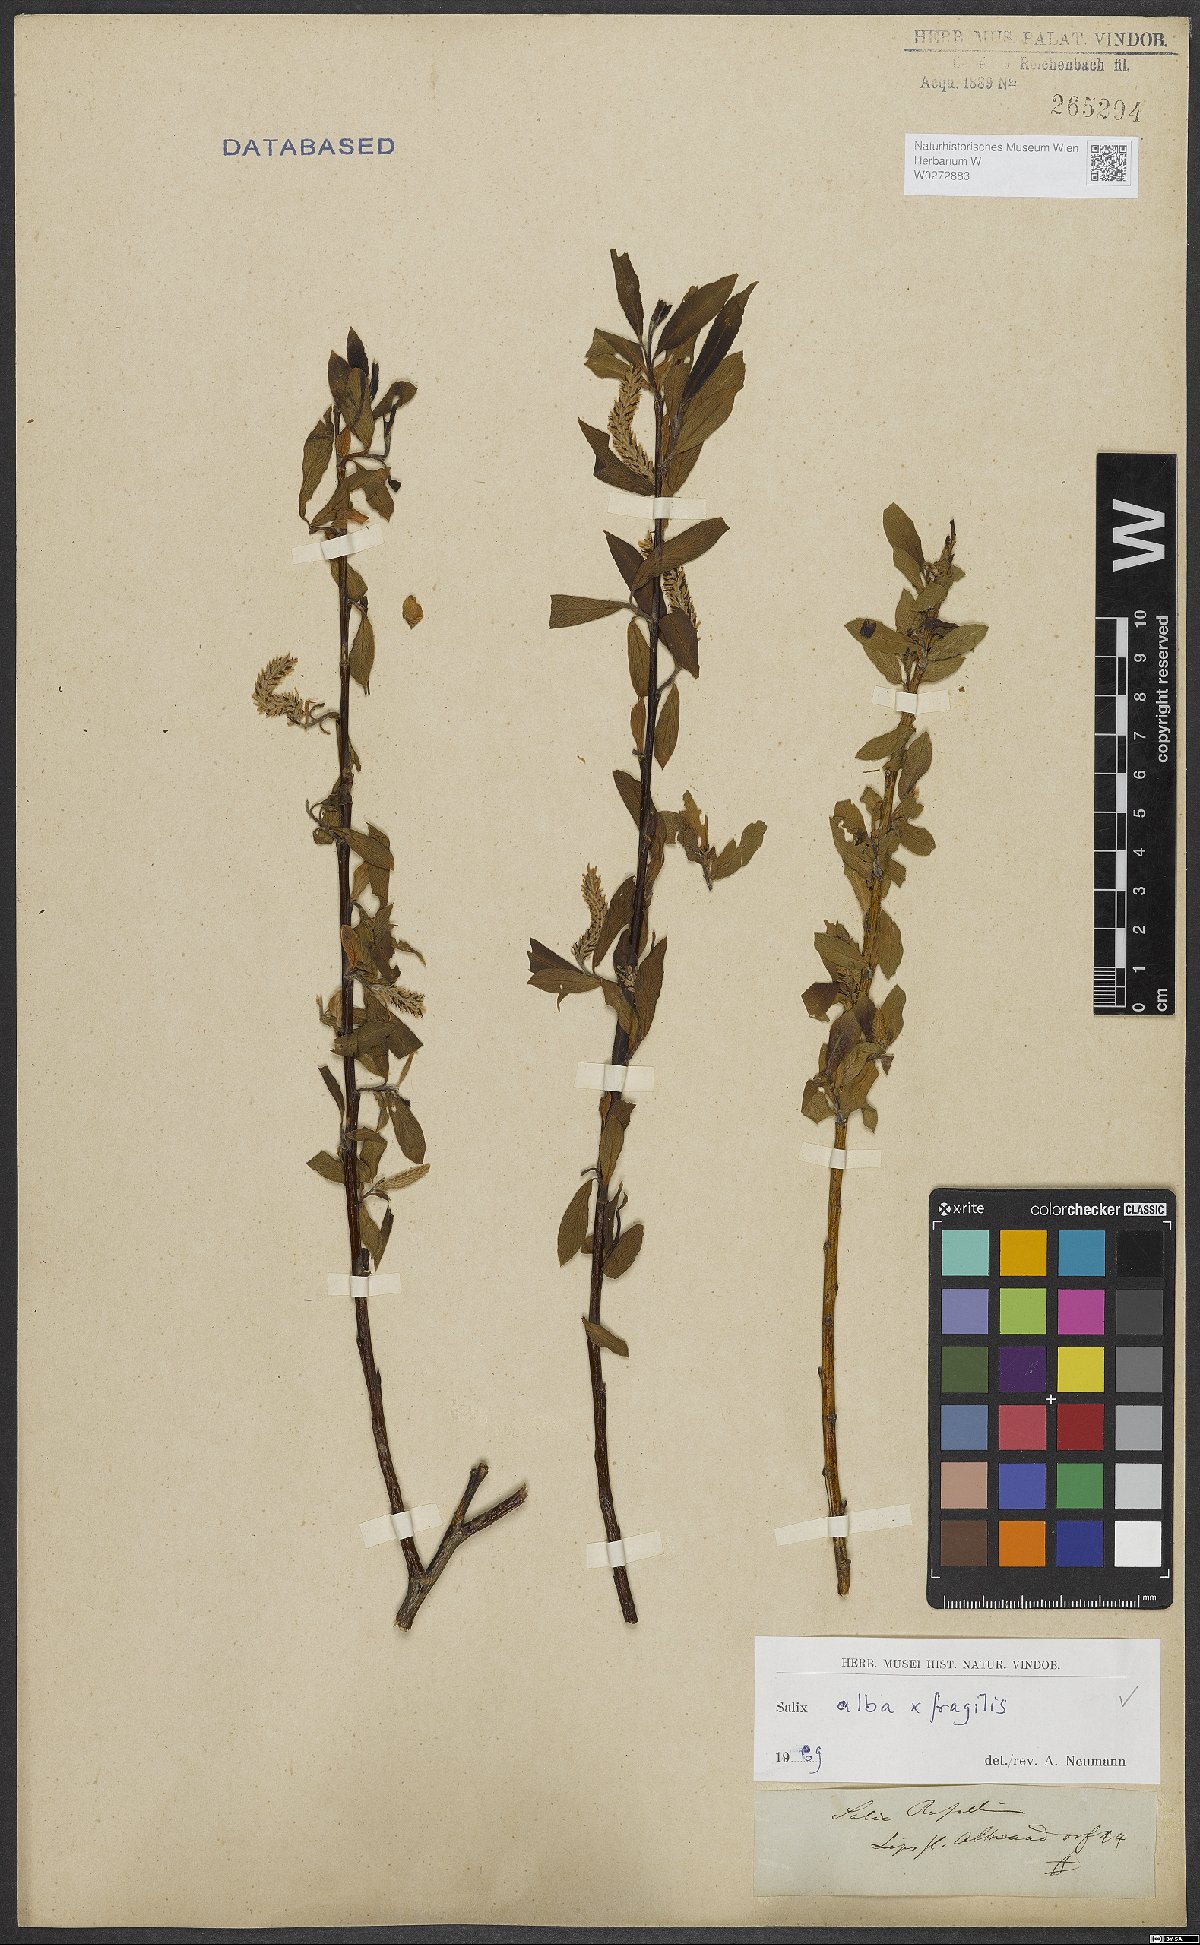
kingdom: Plantae
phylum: Tracheophyta
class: Magnoliopsida
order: Malpighiales
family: Salicaceae
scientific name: Salicaceae
